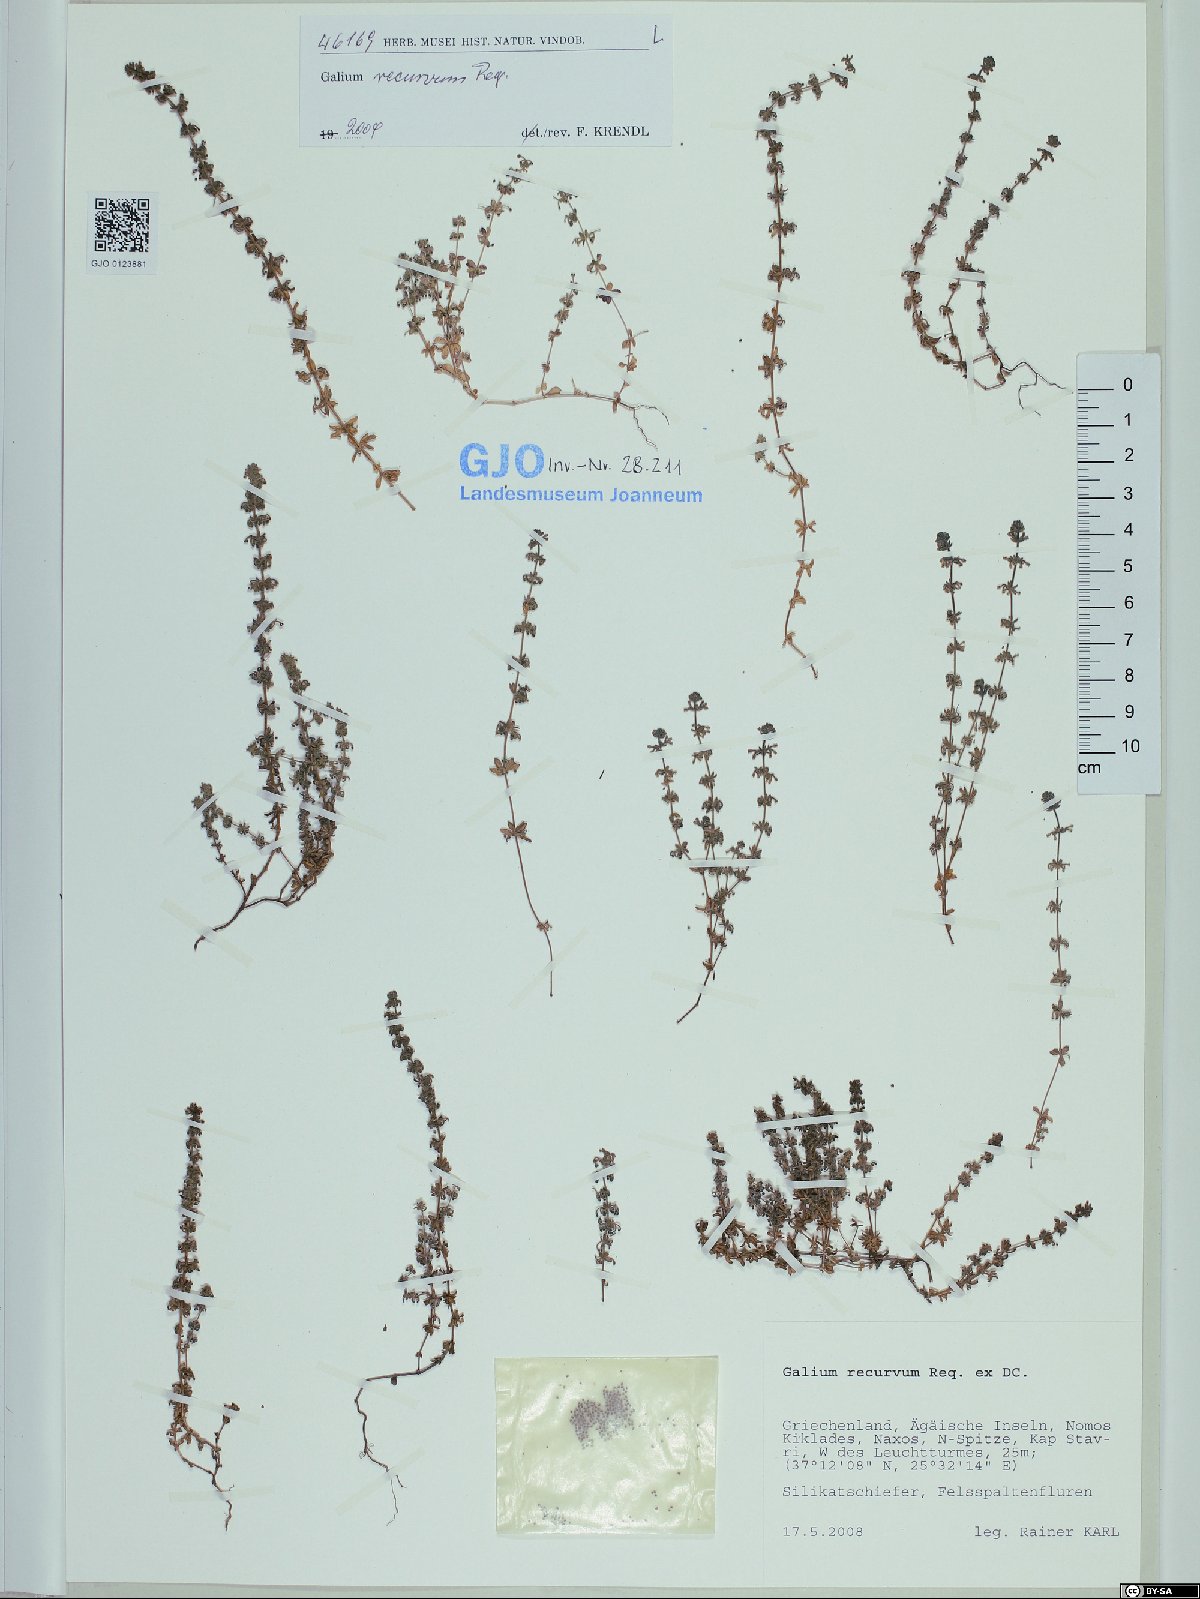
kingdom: Plantae
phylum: Tracheophyta
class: Magnoliopsida
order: Gentianales
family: Rubiaceae
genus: Galium
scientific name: Galium caminianum
